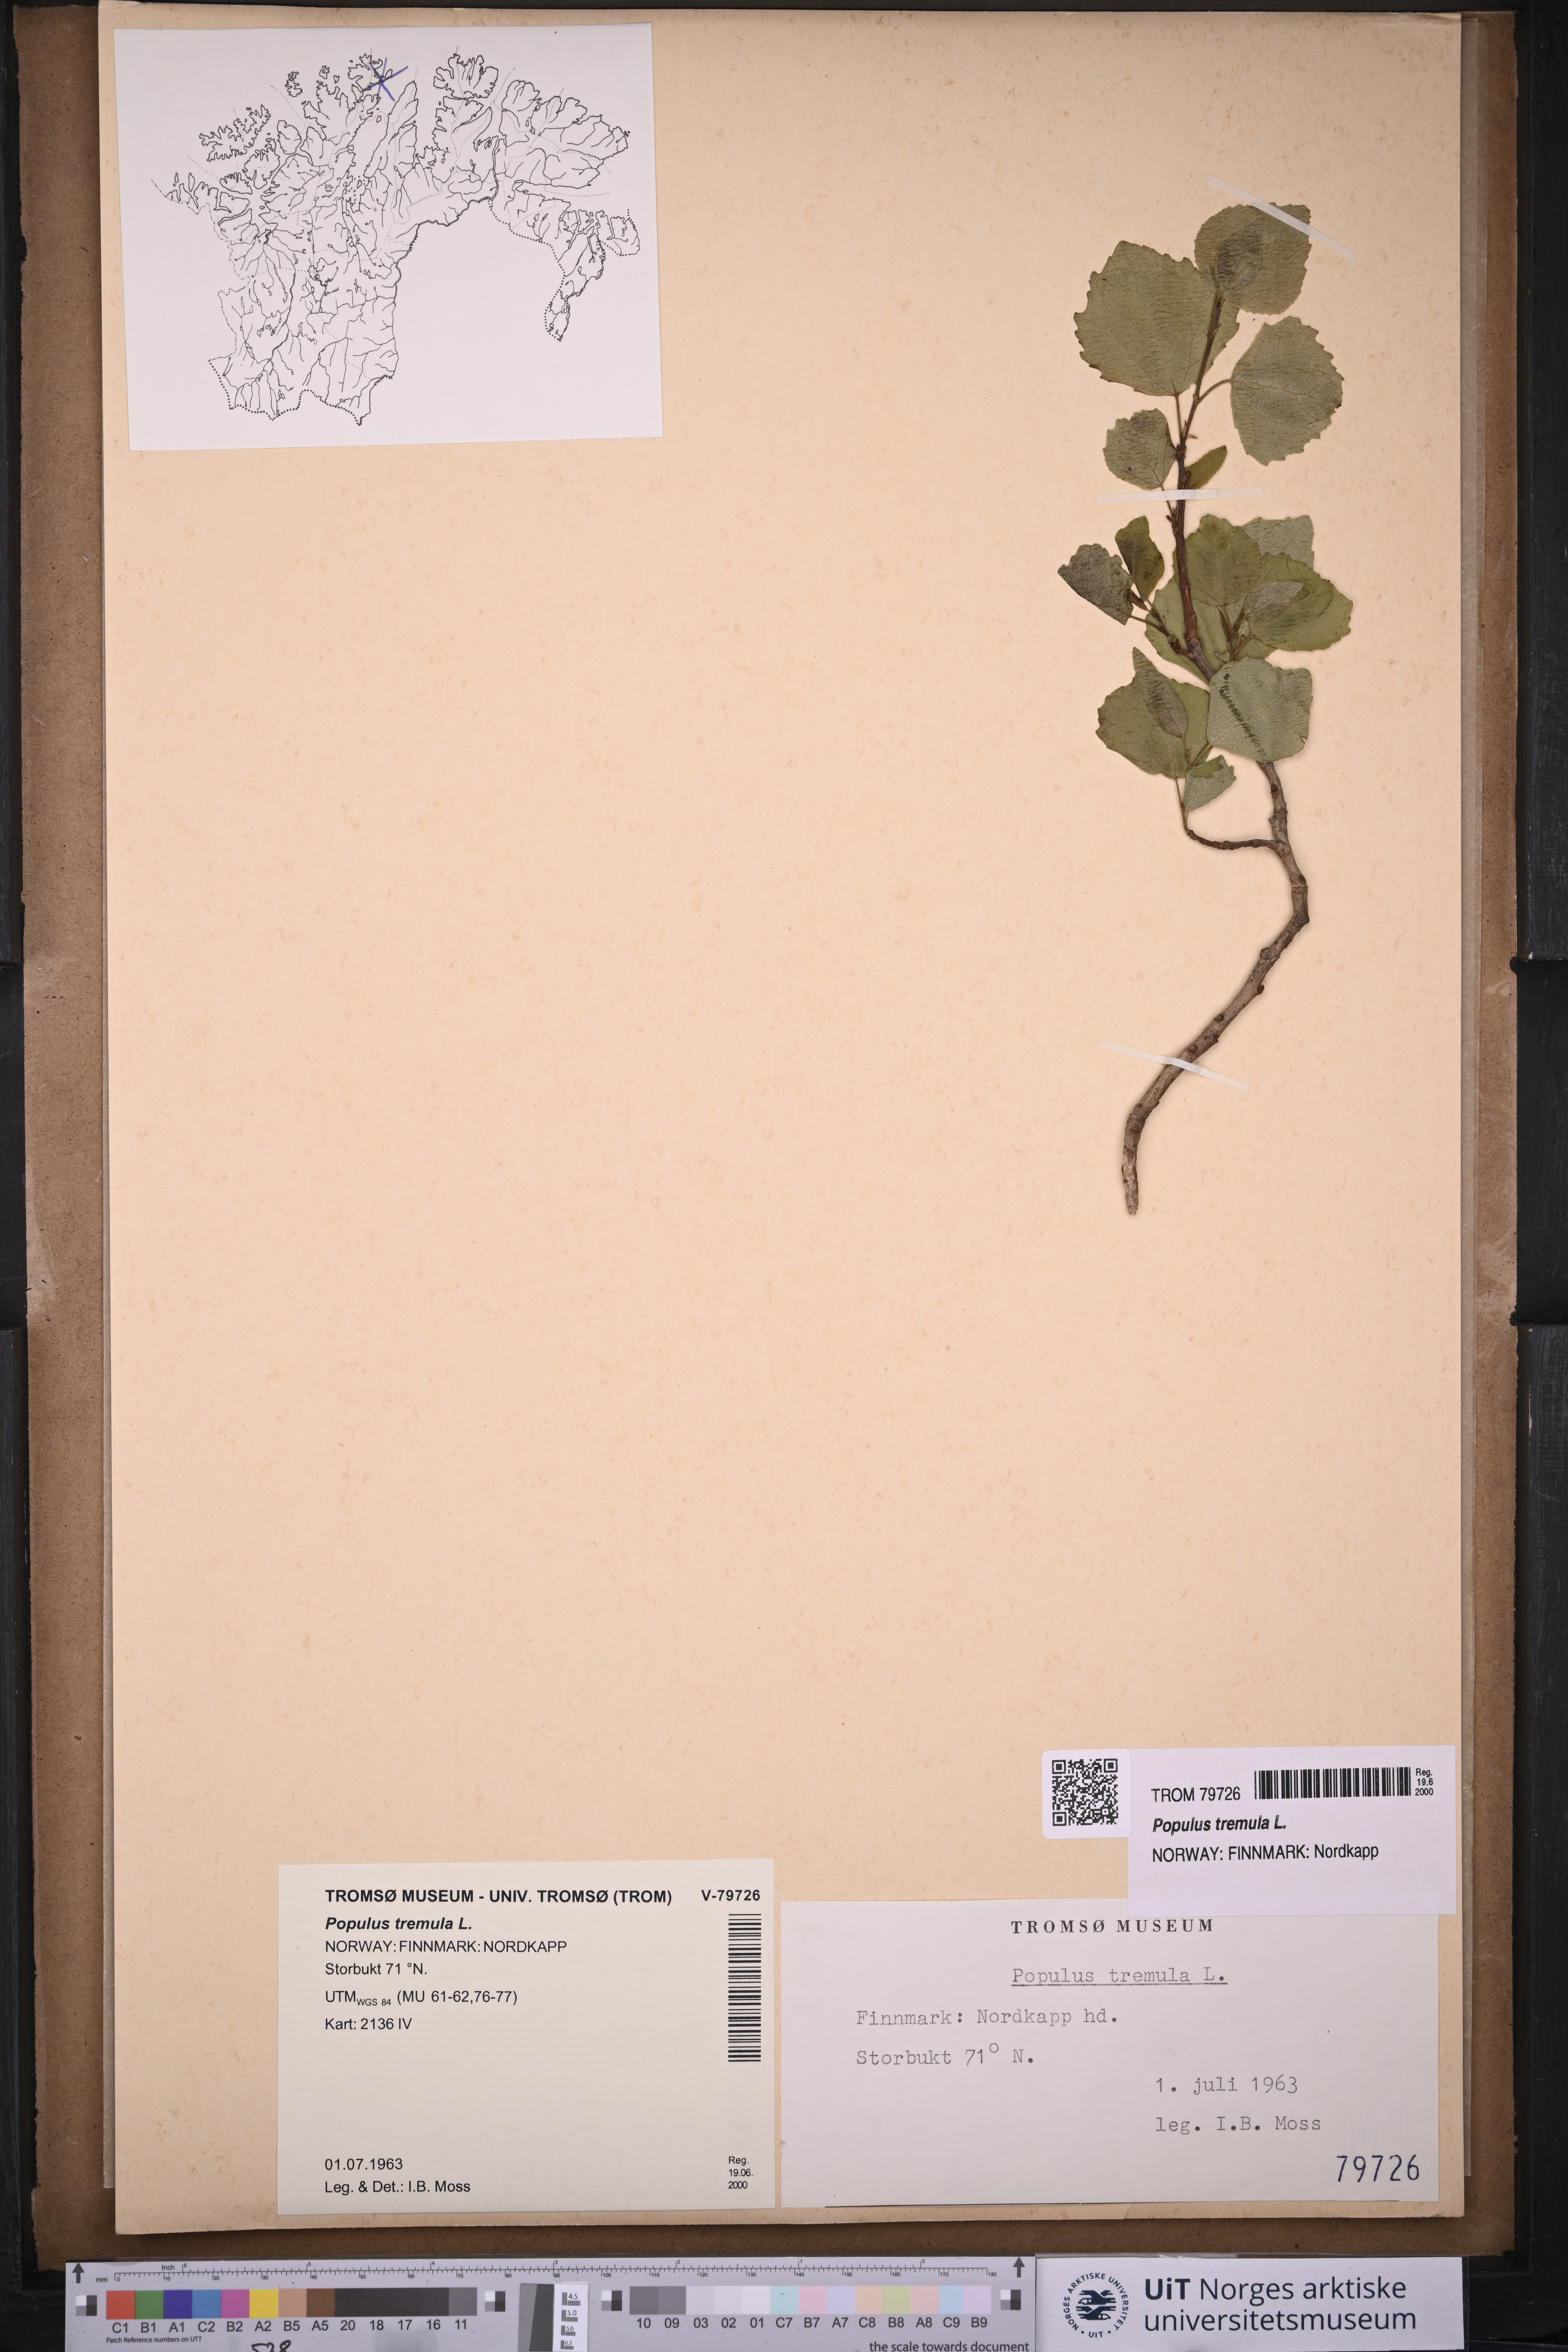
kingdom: Plantae
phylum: Tracheophyta
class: Magnoliopsida
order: Malpighiales
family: Salicaceae
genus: Populus
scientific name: Populus tremula
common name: European aspen
